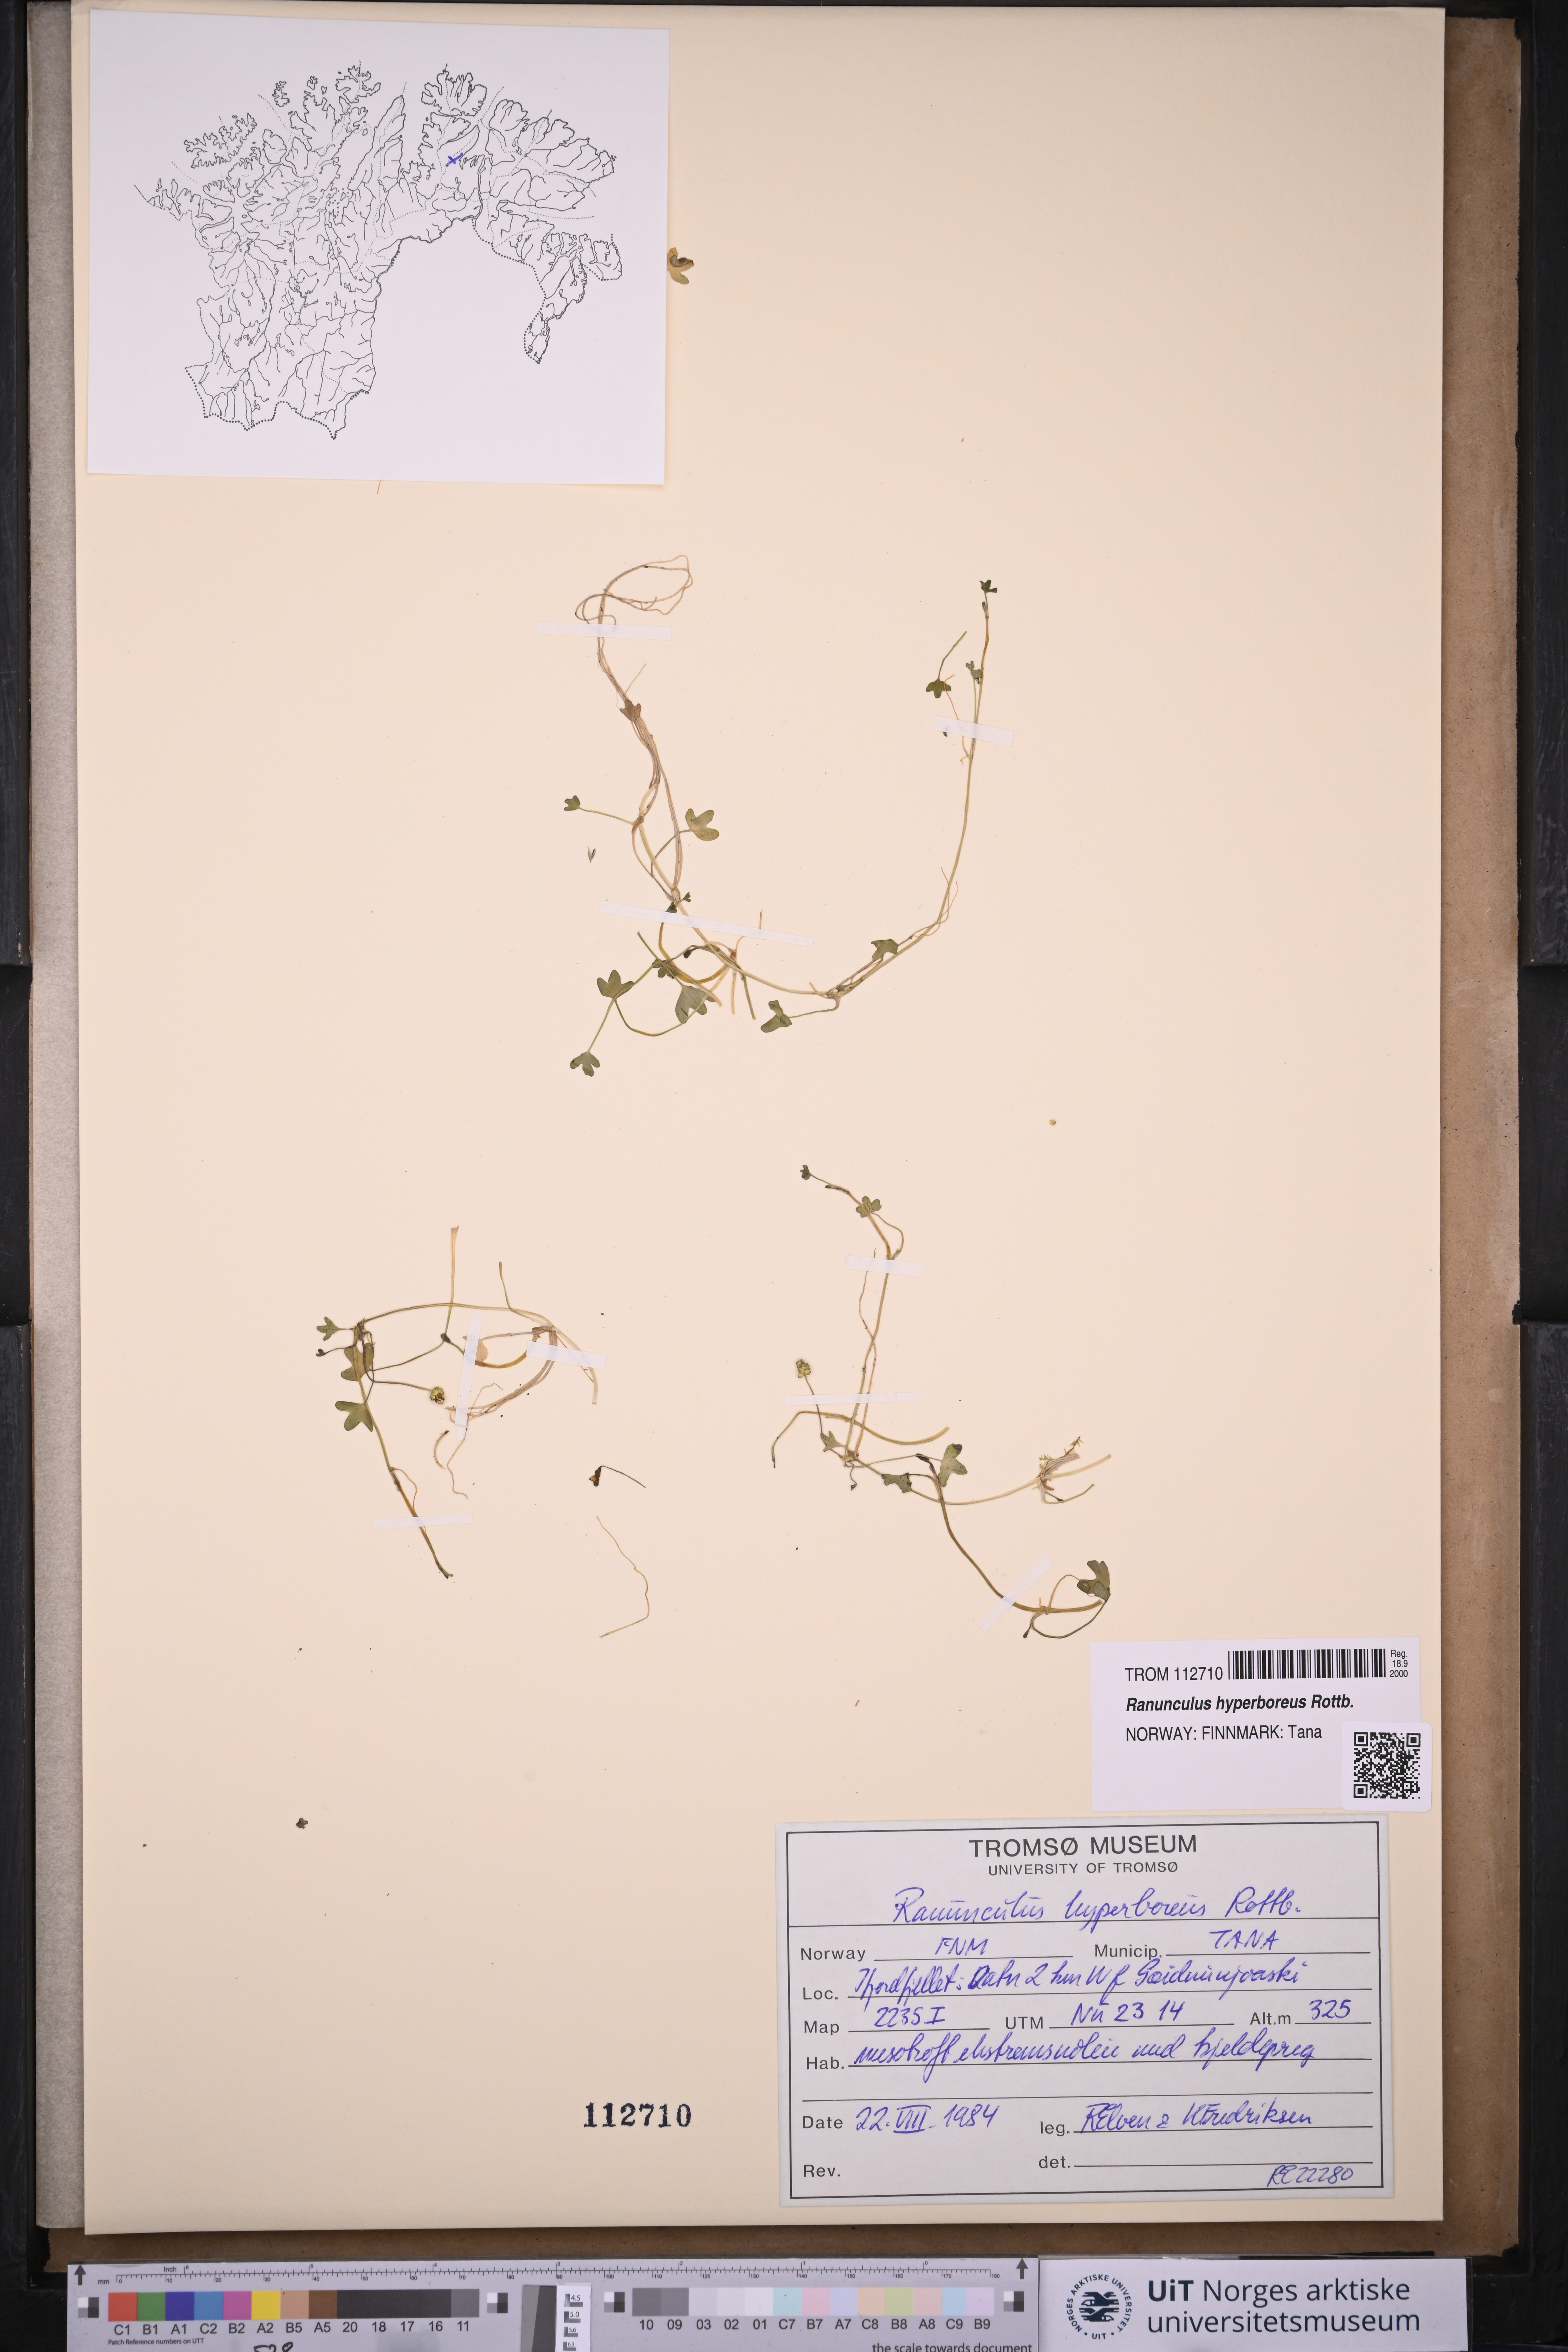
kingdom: Plantae
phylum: Tracheophyta
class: Magnoliopsida
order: Ranunculales
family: Ranunculaceae
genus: Ranunculus
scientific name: Ranunculus hyperboreus
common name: Arctic buttercup
